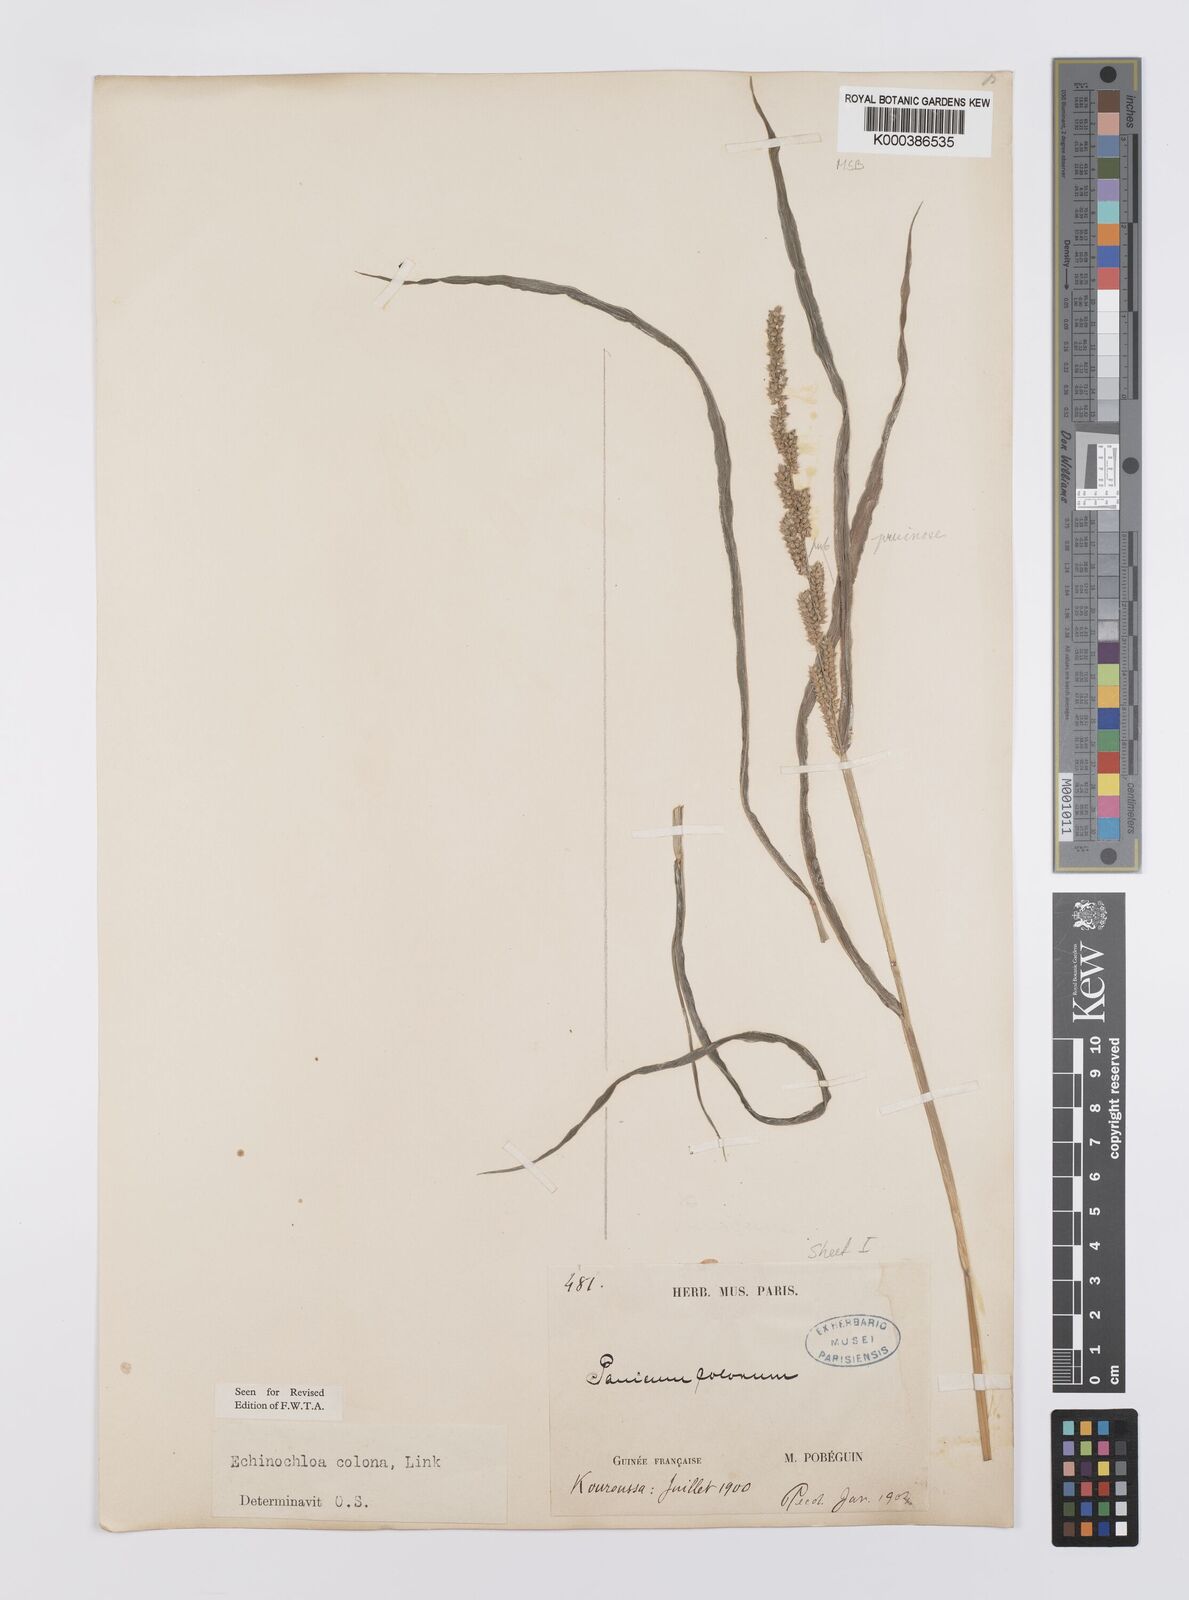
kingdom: Plantae
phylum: Tracheophyta
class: Liliopsida
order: Poales
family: Poaceae
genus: Echinochloa
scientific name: Echinochloa colonum
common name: Jungle rice
